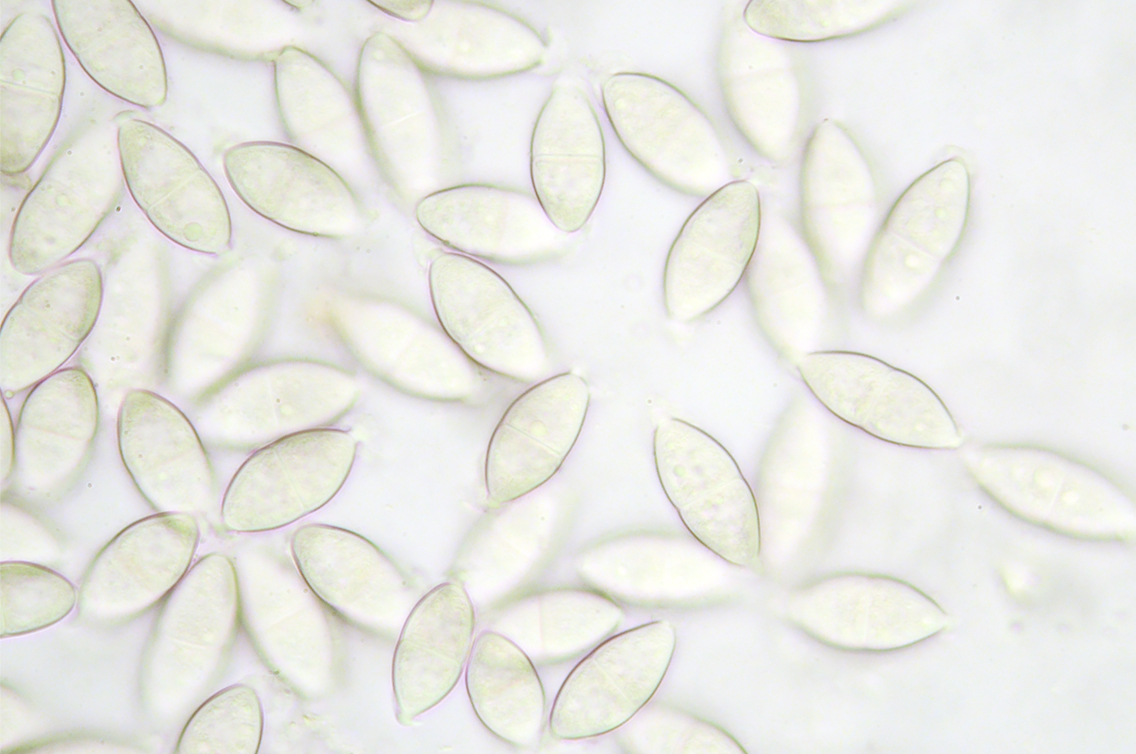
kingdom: Fungi
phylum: Ascomycota
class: Dothideomycetes
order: Pleosporales
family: Didymosphaeriaceae
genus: Montagnula
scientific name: Montagnula perforans
